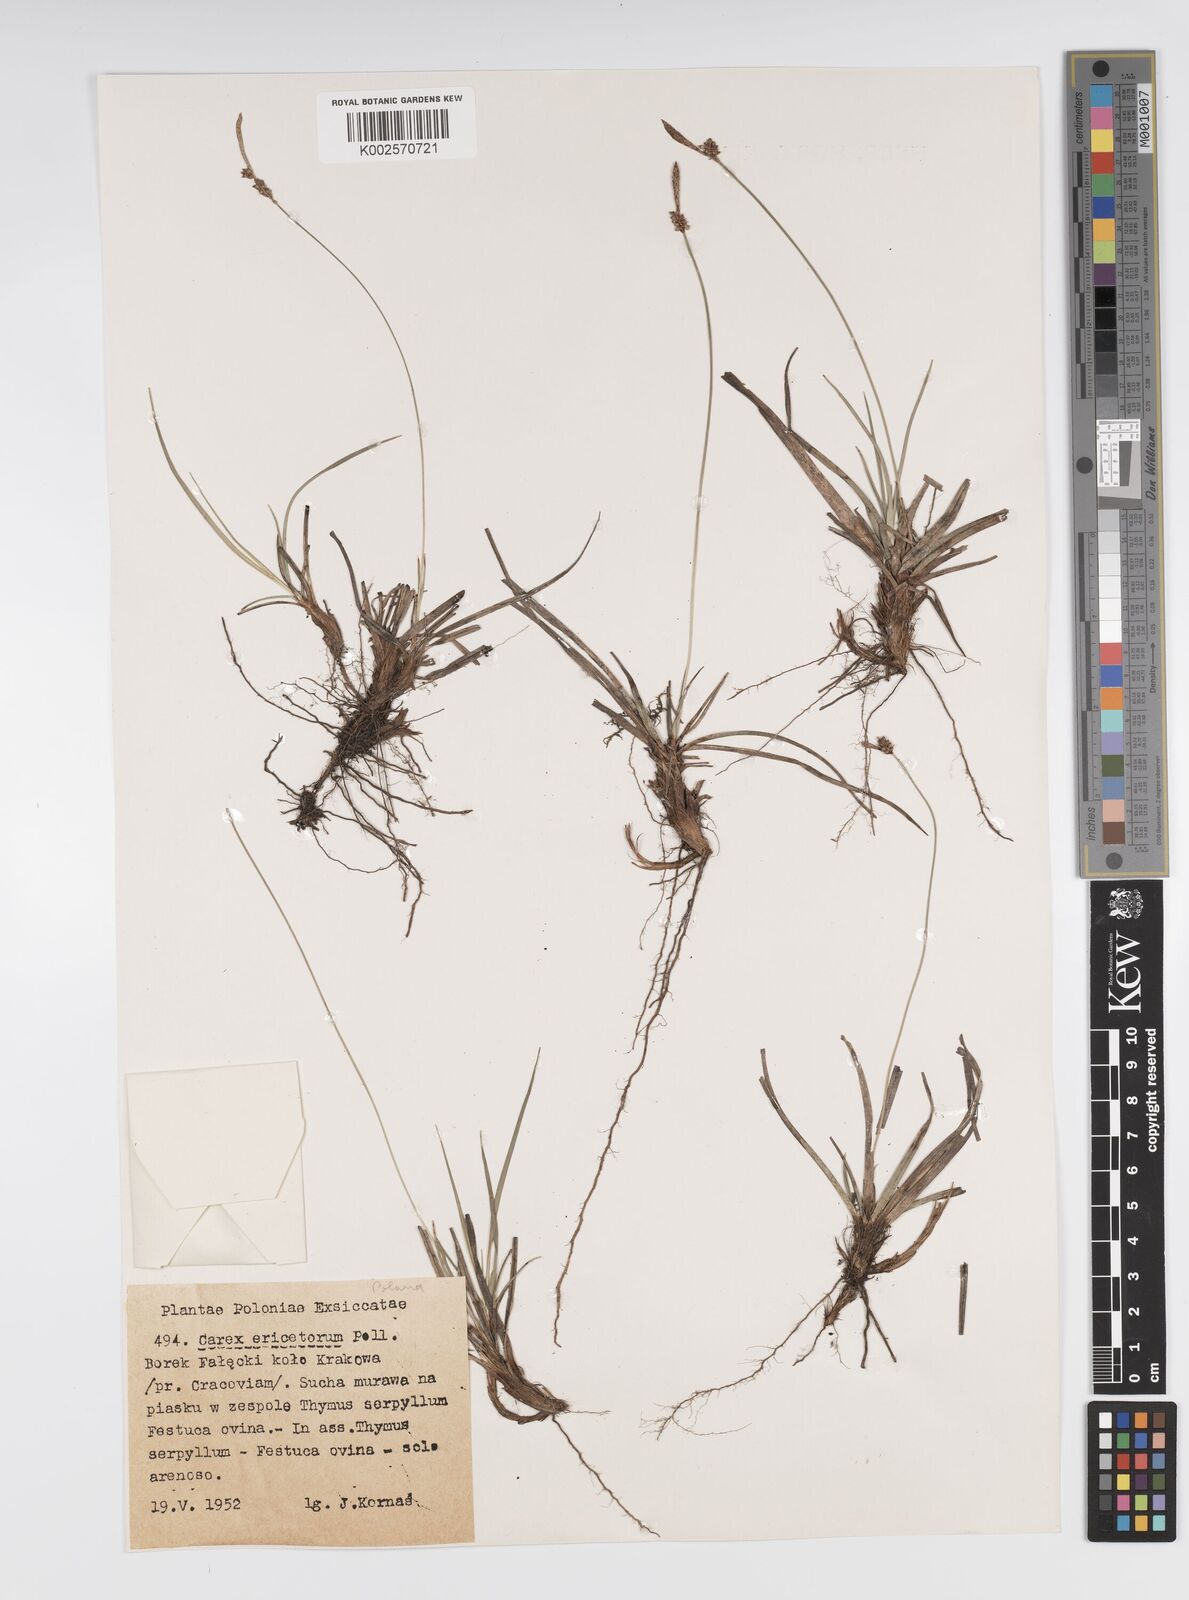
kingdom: Plantae
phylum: Tracheophyta
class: Liliopsida
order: Poales
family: Cyperaceae
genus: Carex
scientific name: Carex ericetorum
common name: Rare spring-sedge
